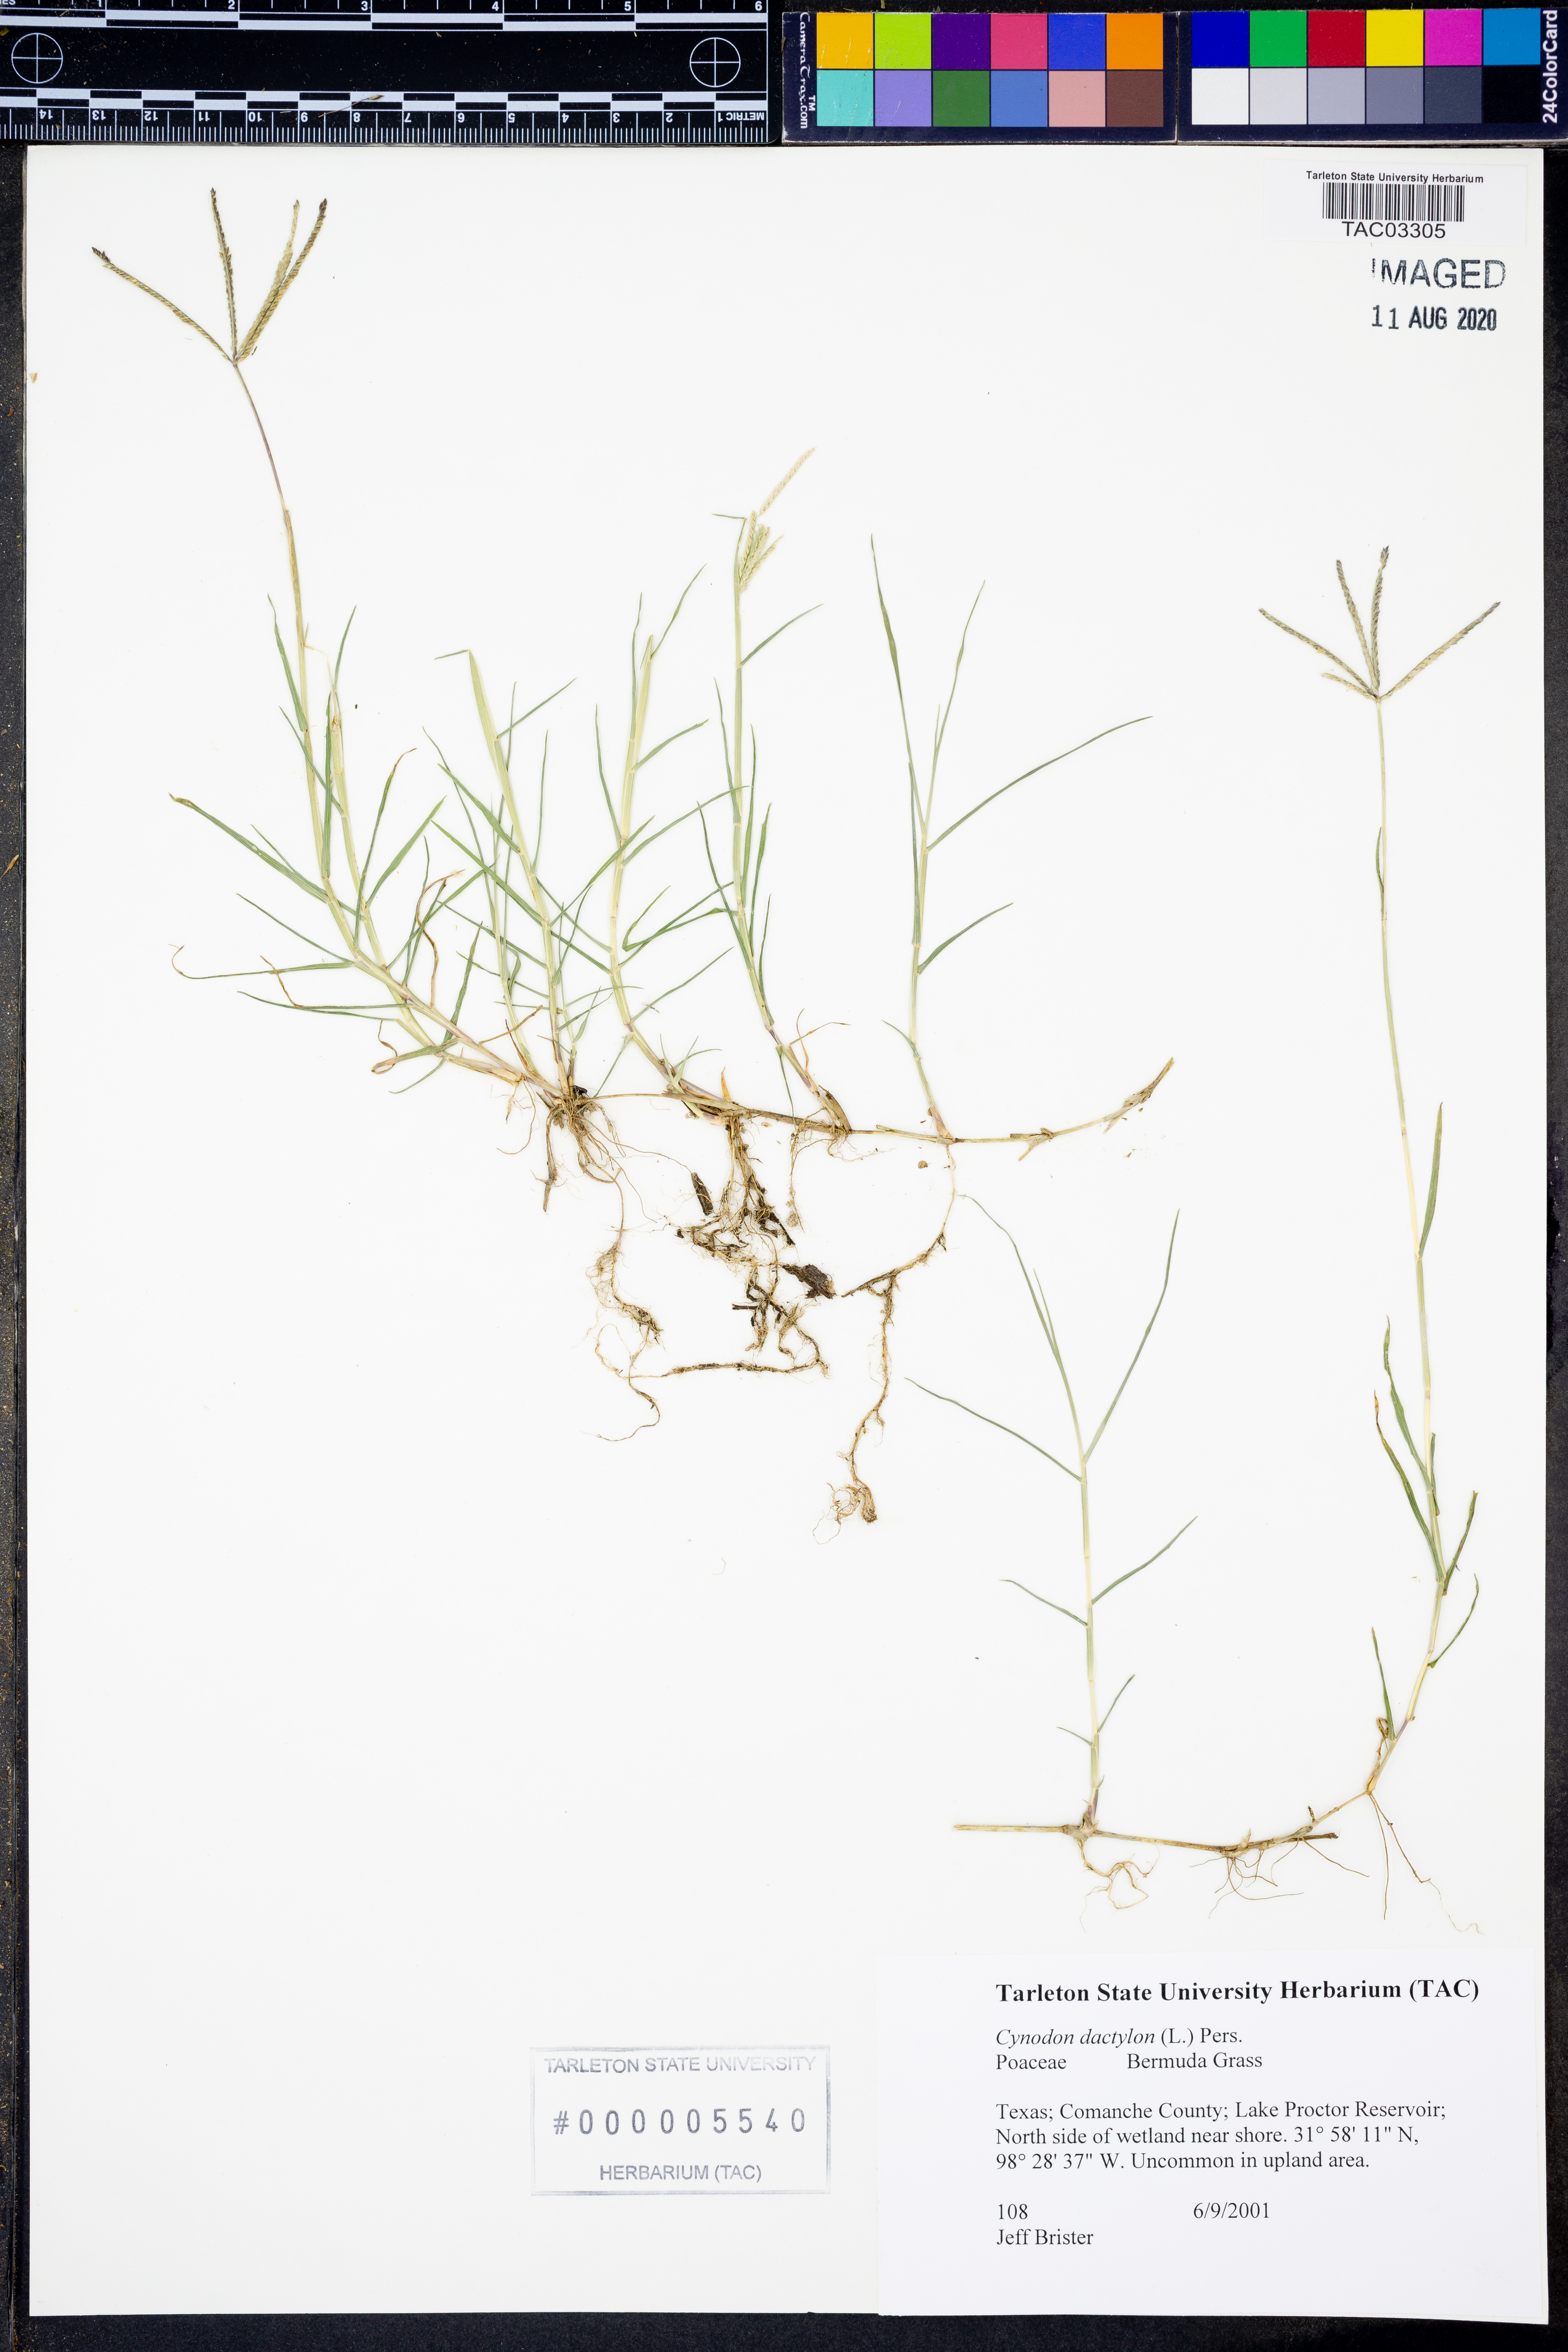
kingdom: Plantae
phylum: Tracheophyta
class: Liliopsida
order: Poales
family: Poaceae
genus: Cynodon
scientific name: Cynodon dactylon
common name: Bermuda grass
